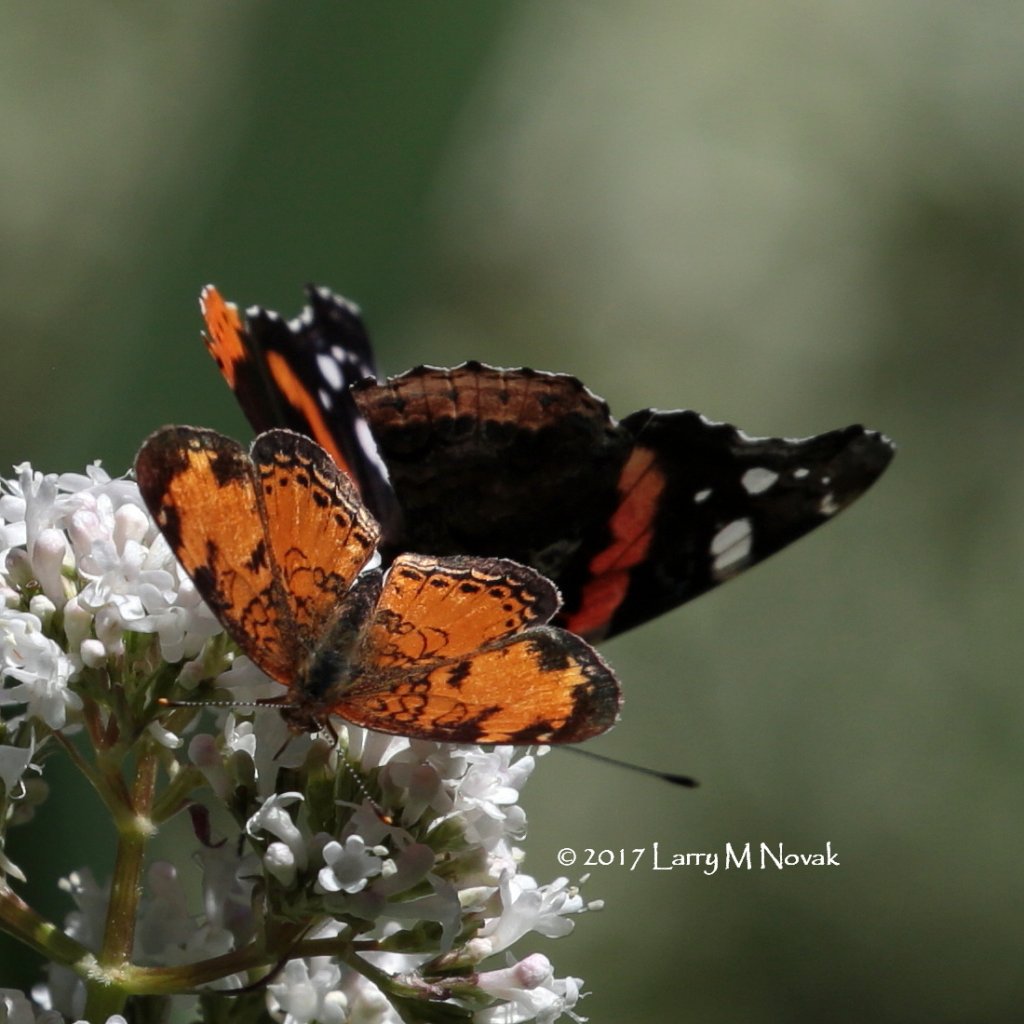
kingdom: Animalia
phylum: Arthropoda
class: Insecta
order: Lepidoptera
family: Nymphalidae
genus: Phyciodes
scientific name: Phyciodes tharos
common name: Northern Crescent
